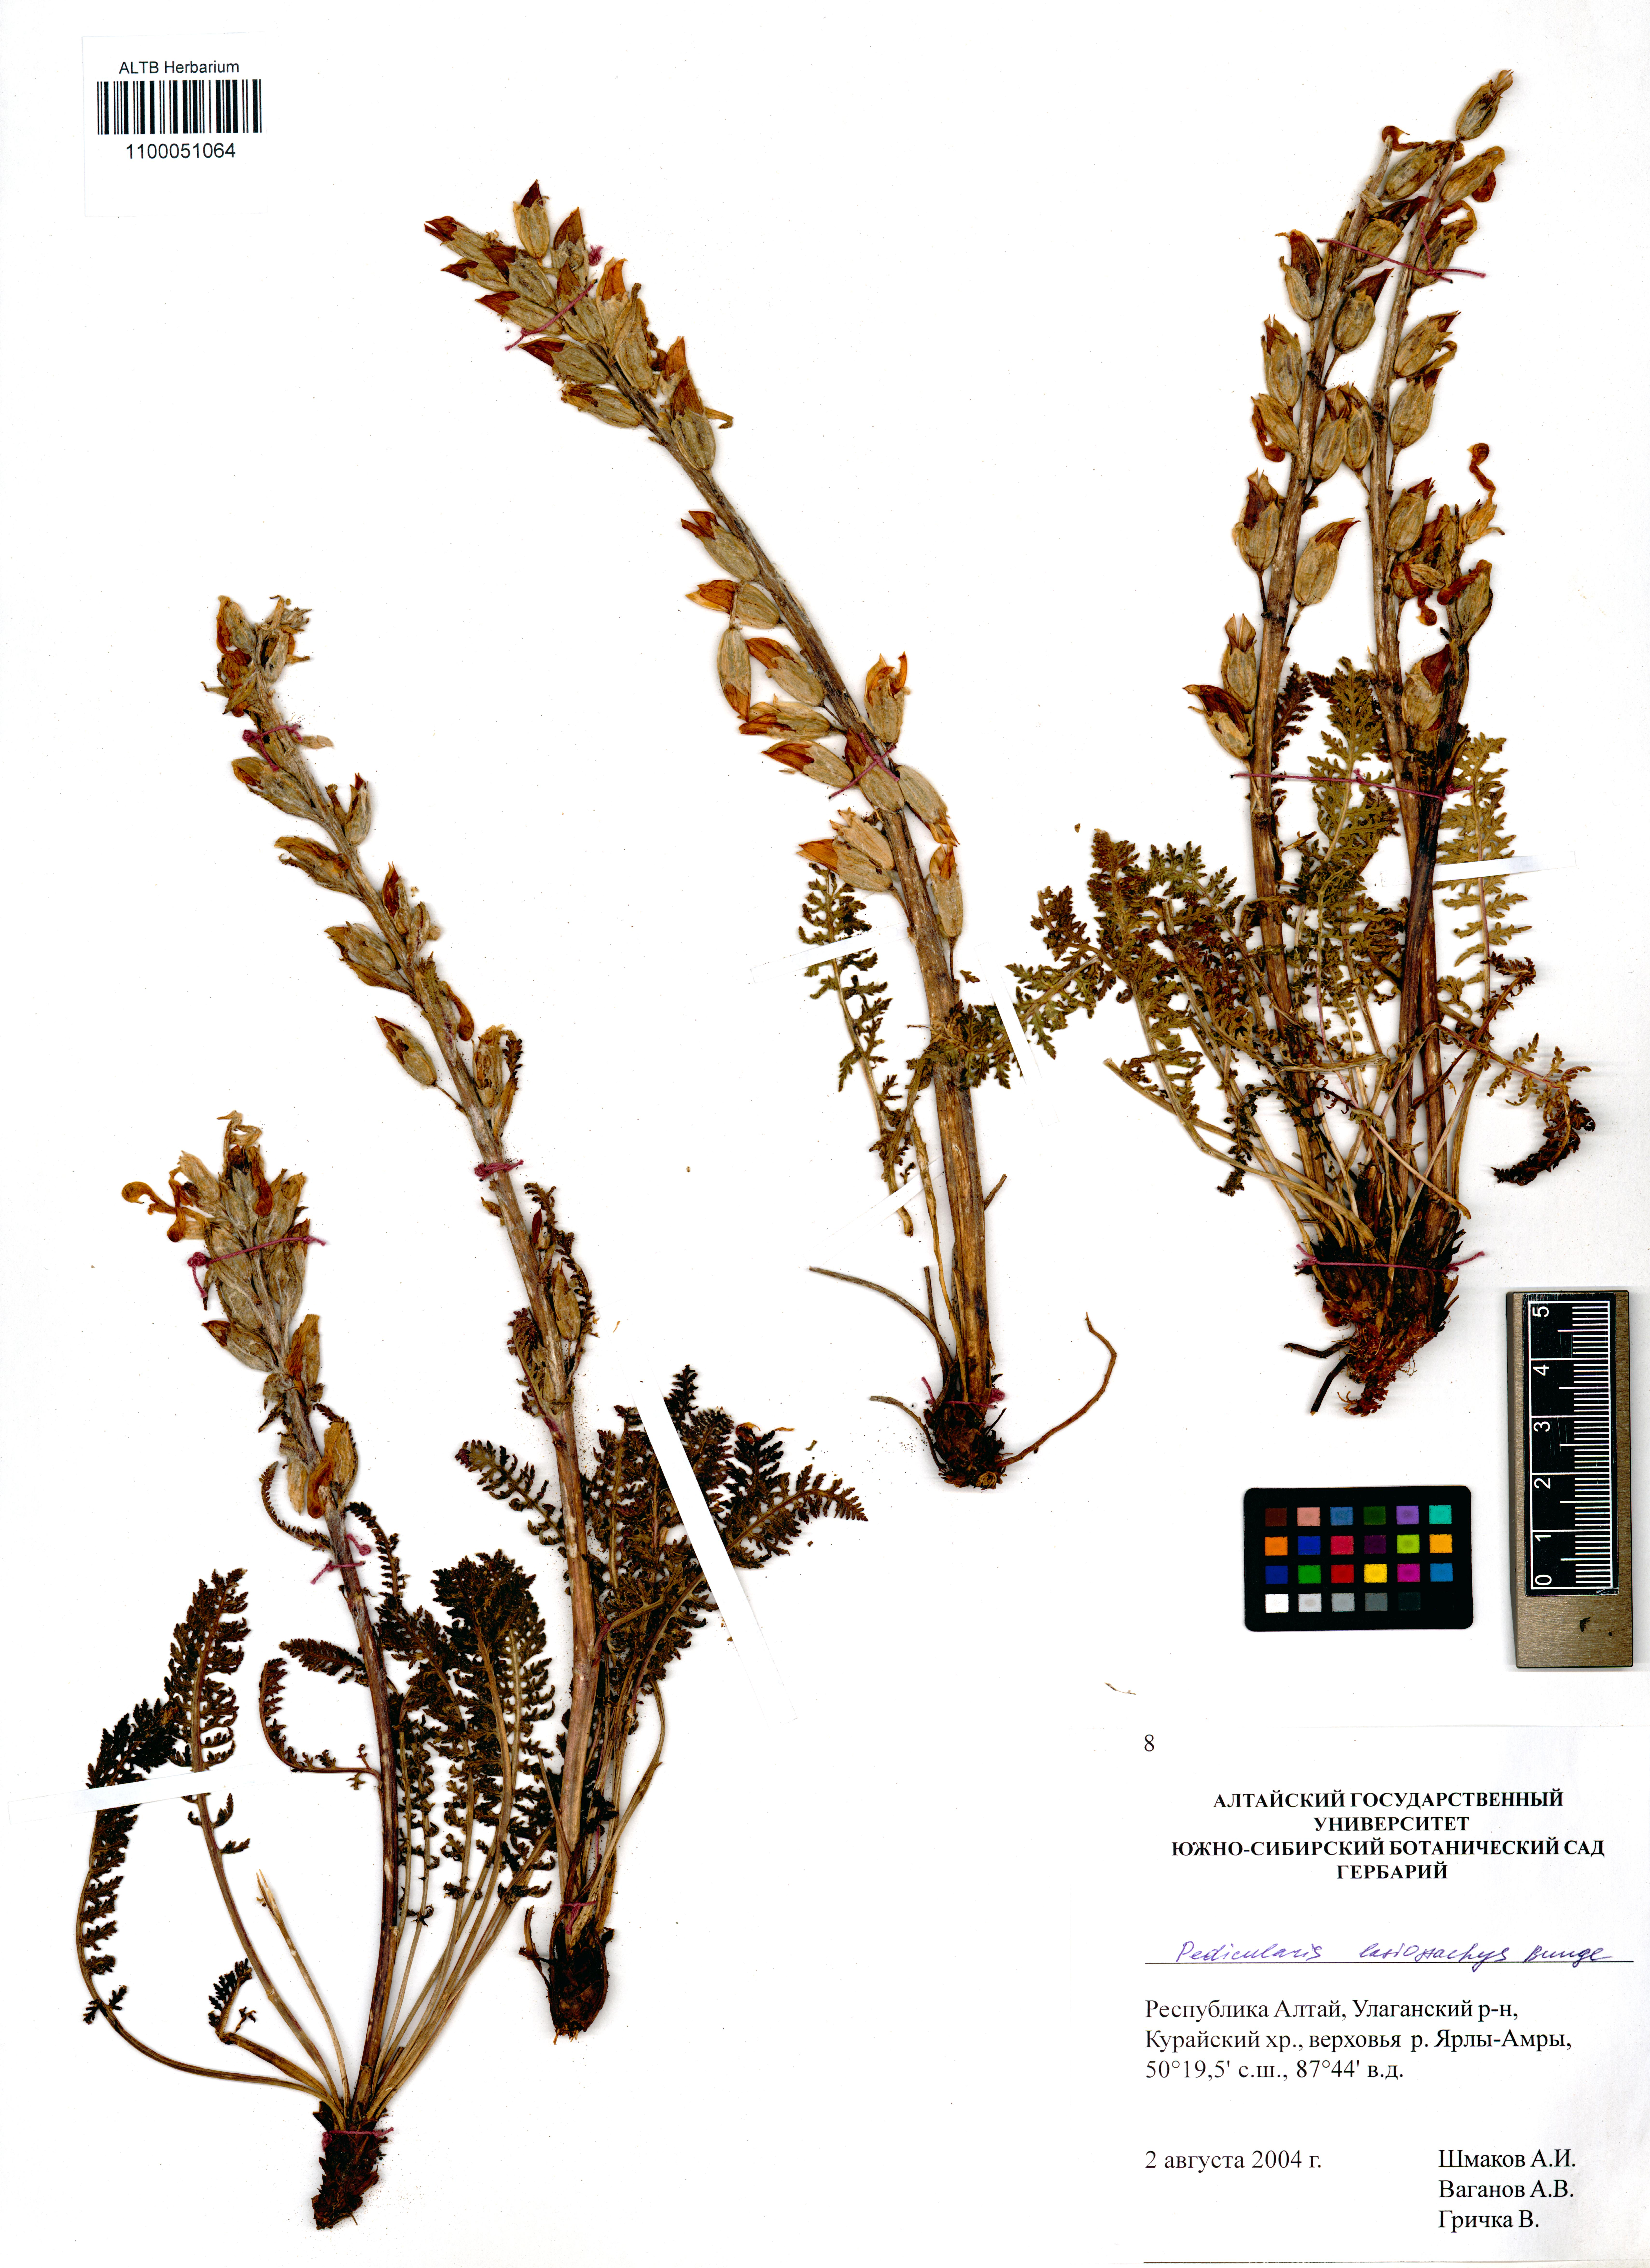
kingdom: Plantae
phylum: Tracheophyta
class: Magnoliopsida
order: Lamiales
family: Orobanchaceae
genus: Pedicularis
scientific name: Pedicularis lasiostachys
